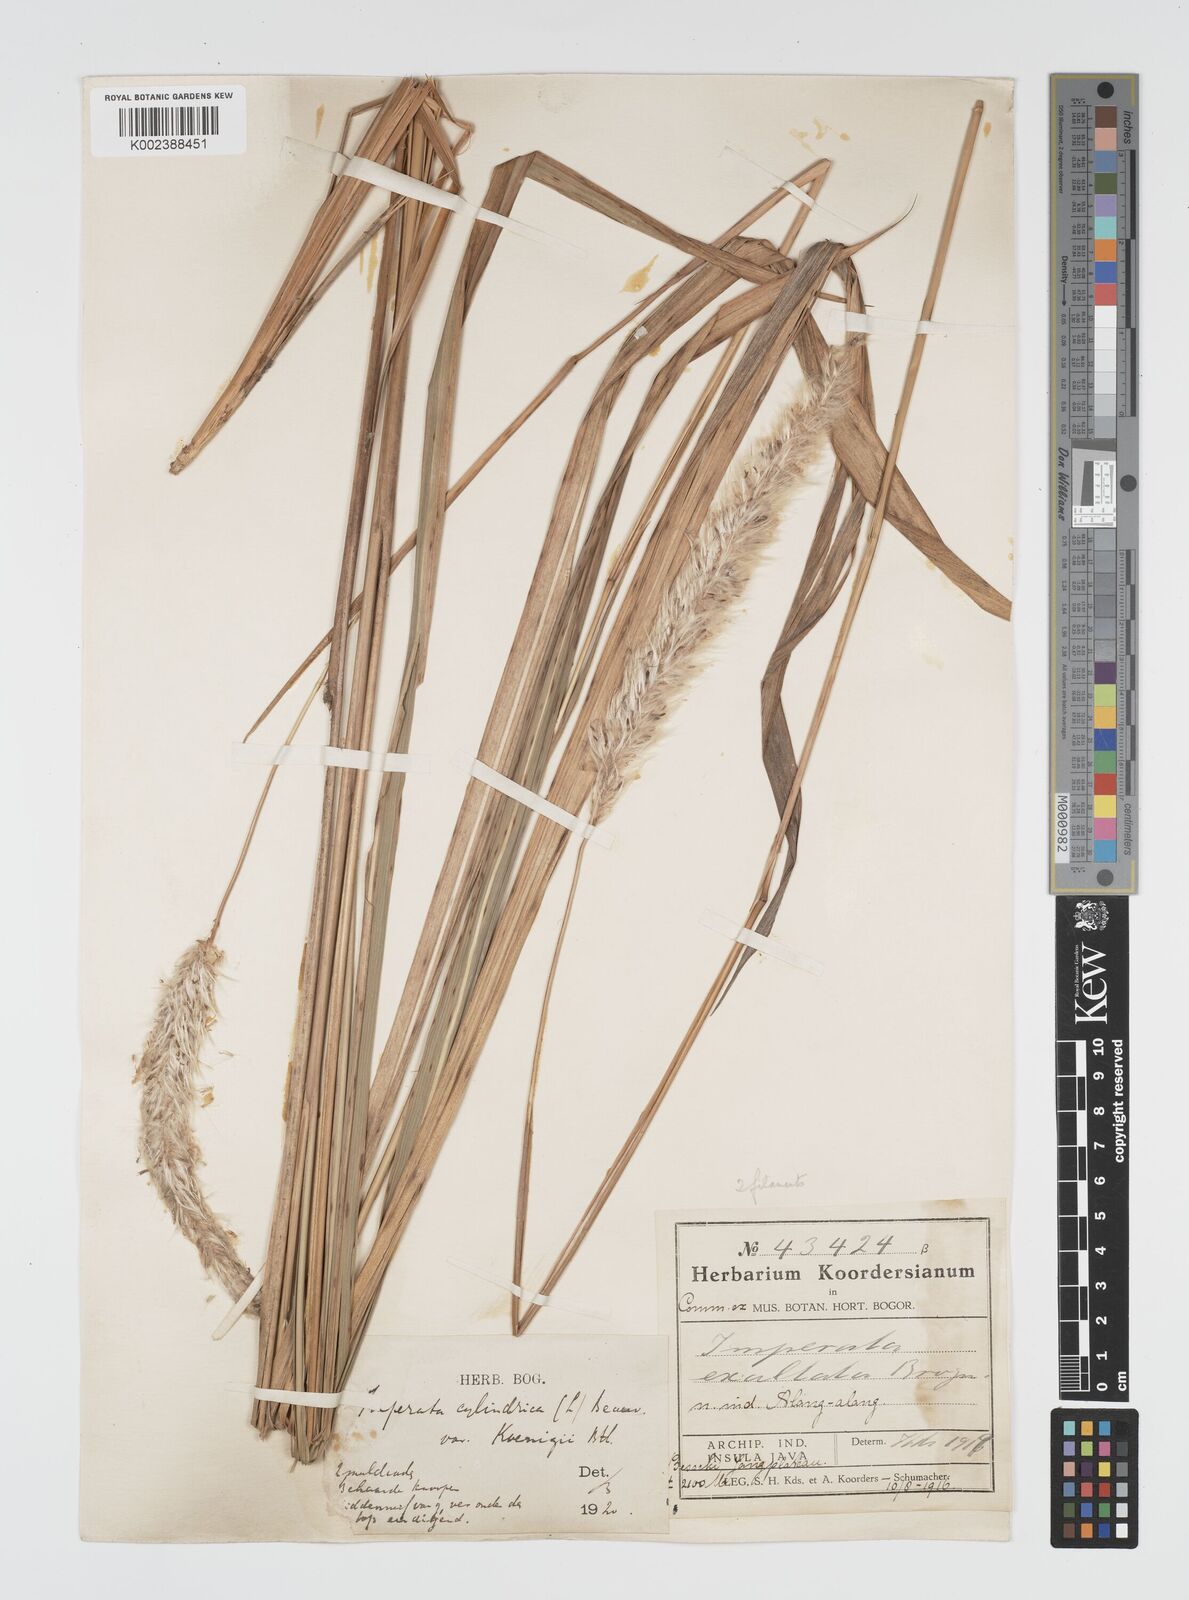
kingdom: Plantae
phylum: Tracheophyta
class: Liliopsida
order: Poales
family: Poaceae
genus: Imperata
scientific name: Imperata
